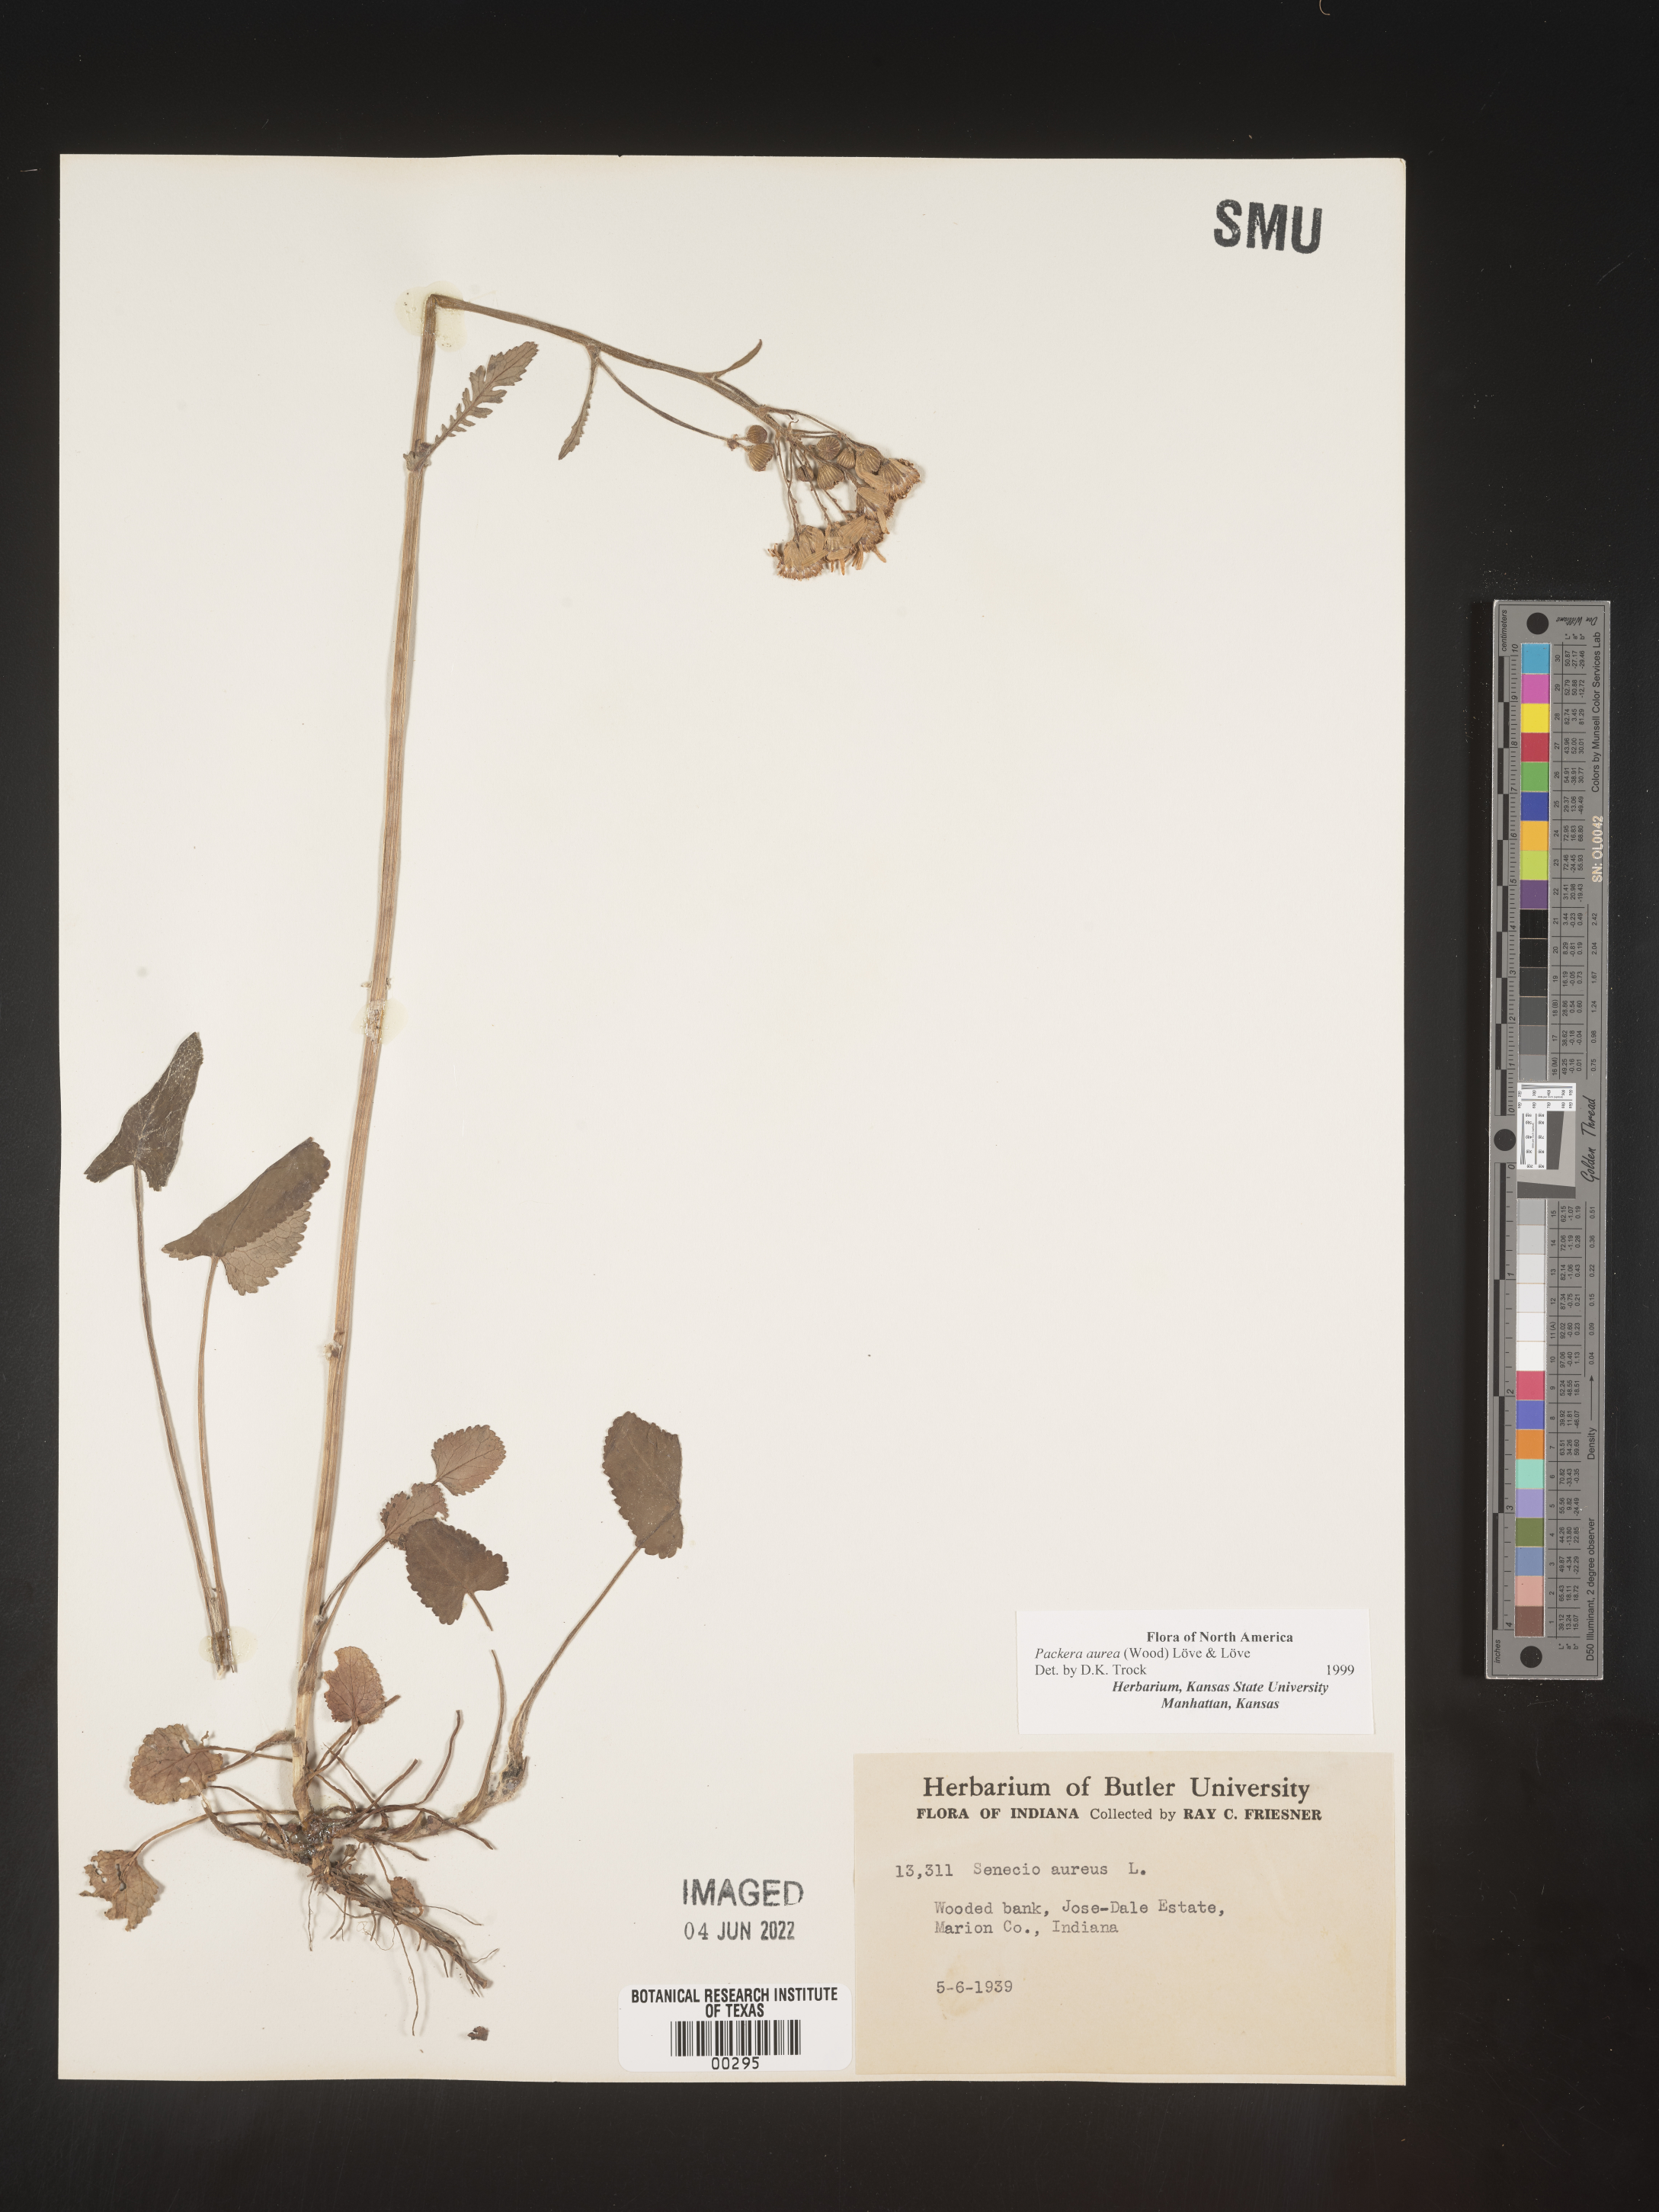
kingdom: Plantae
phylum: Tracheophyta
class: Magnoliopsida
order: Asterales
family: Asteraceae
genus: Packera
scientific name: Packera aurea
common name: Golden groundsel
